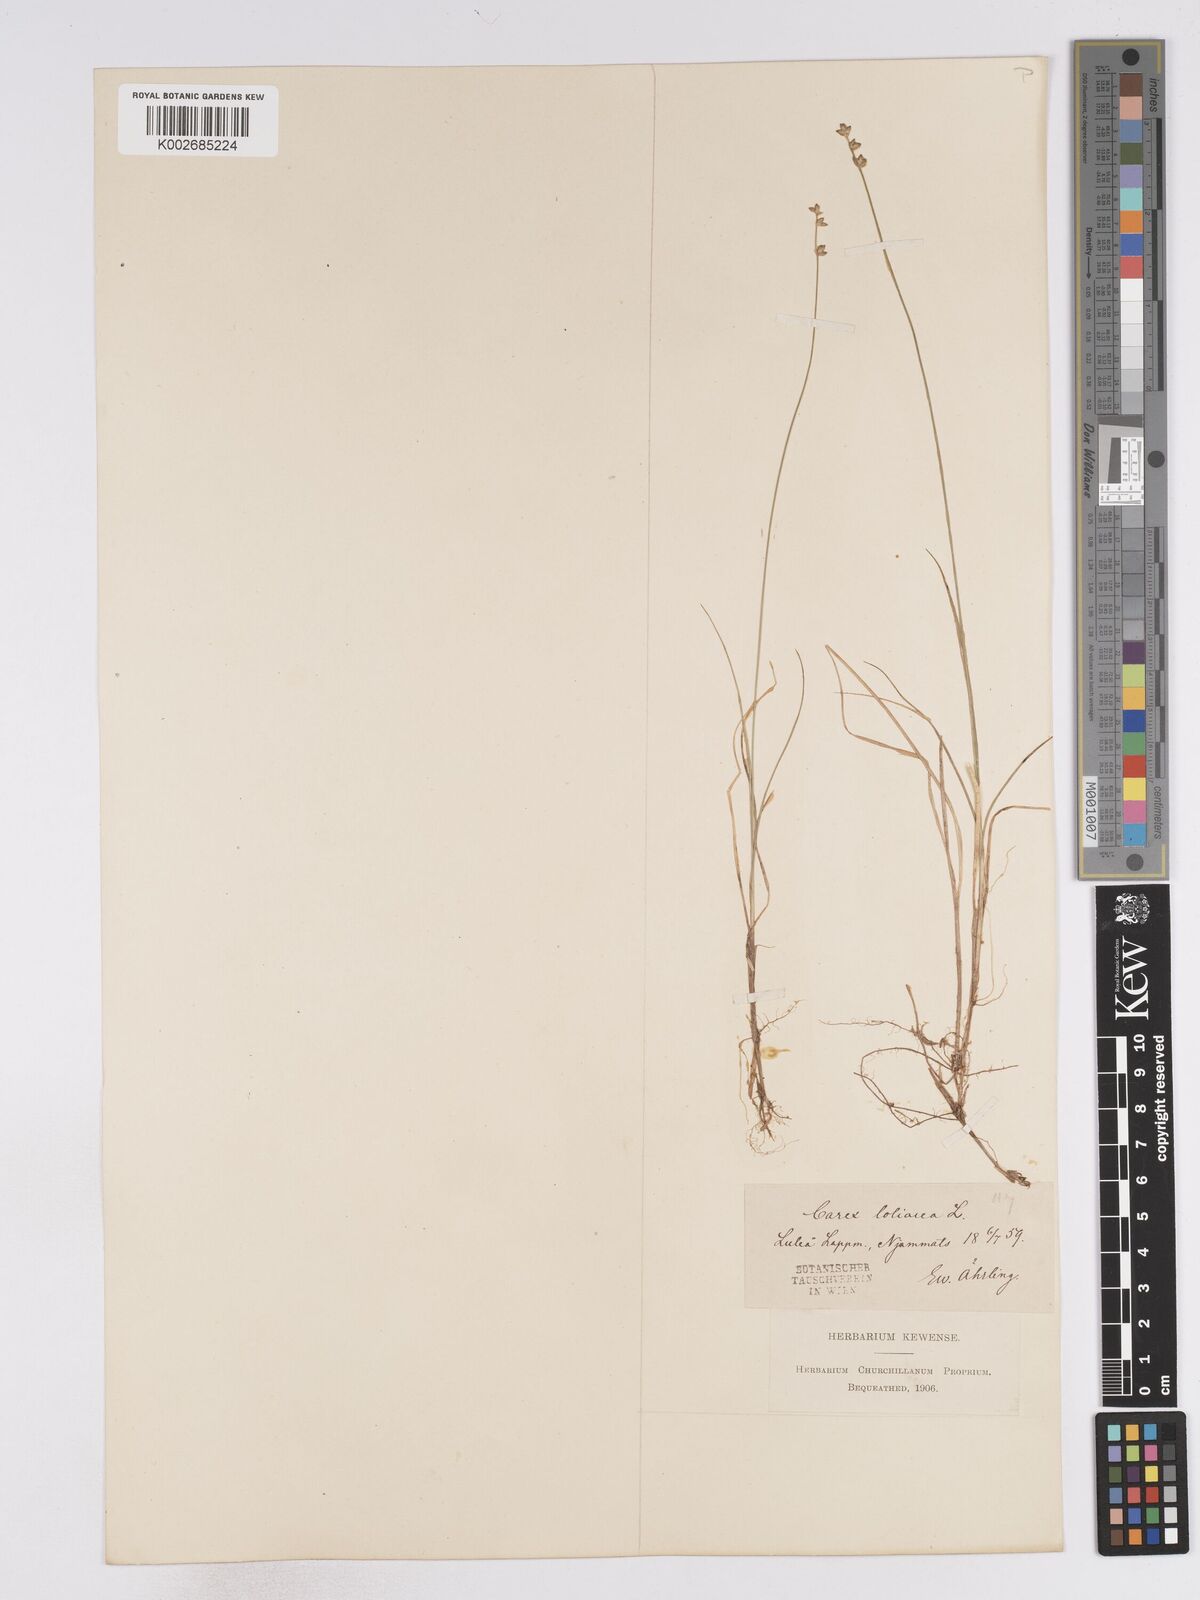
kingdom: Plantae
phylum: Tracheophyta
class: Liliopsida
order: Poales
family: Cyperaceae
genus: Carex
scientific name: Carex loliacea
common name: Ryegrass sedge
